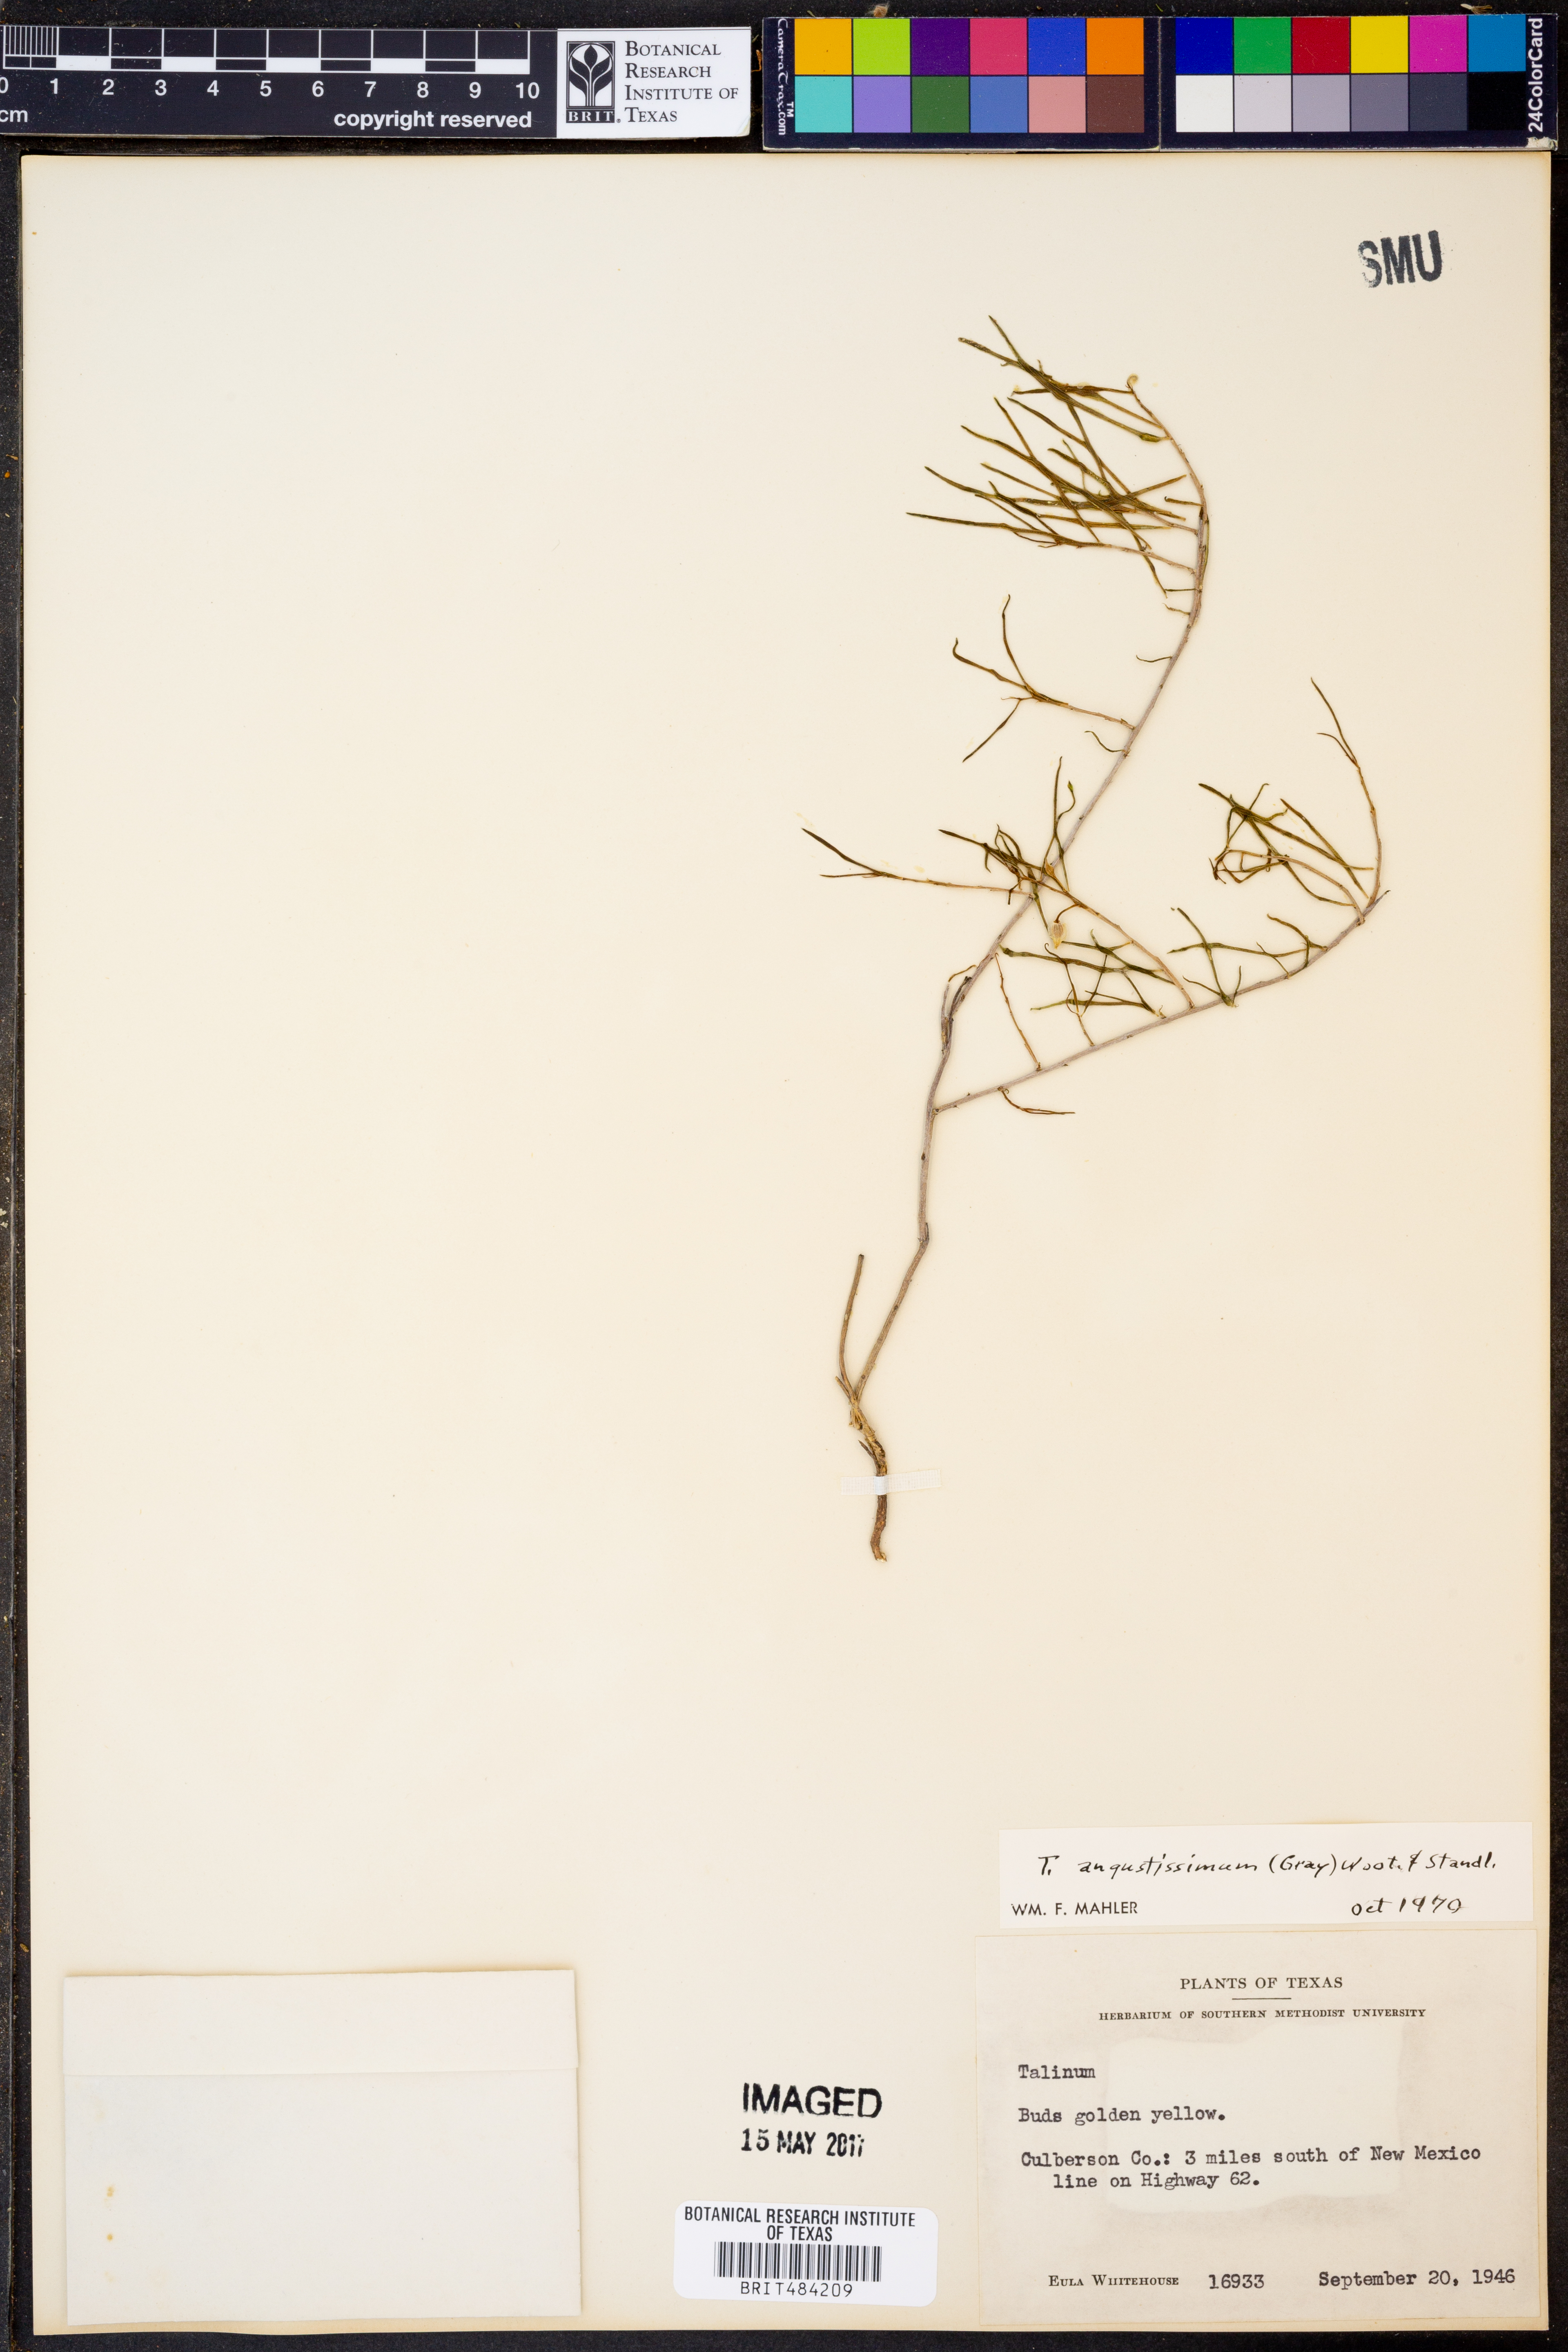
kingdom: Plantae
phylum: Tracheophyta
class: Magnoliopsida
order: Caryophyllales
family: Montiaceae
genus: Phemeranthus
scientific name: Phemeranthus aurantiacus
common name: Orange fameflower
